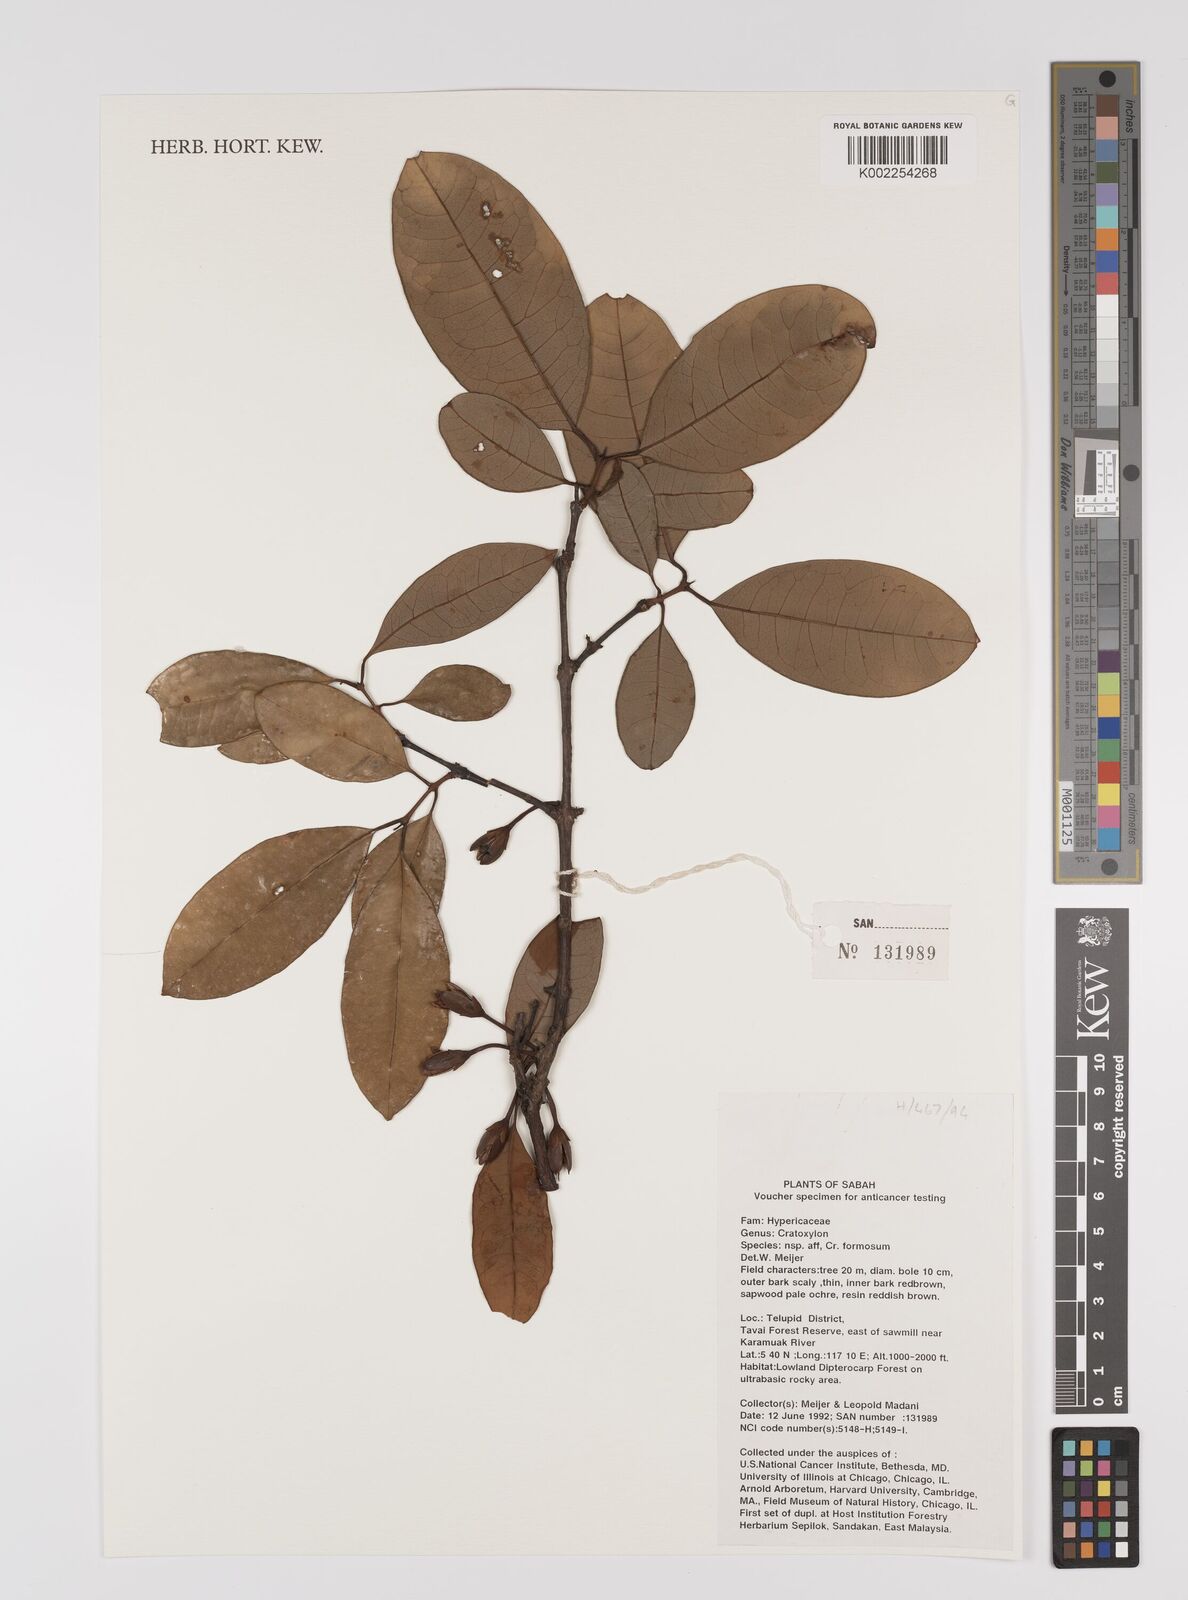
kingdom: Plantae
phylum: Tracheophyta
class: Magnoliopsida
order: Malpighiales
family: Hypericaceae
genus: Cratoxylum
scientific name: Cratoxylum formosum
